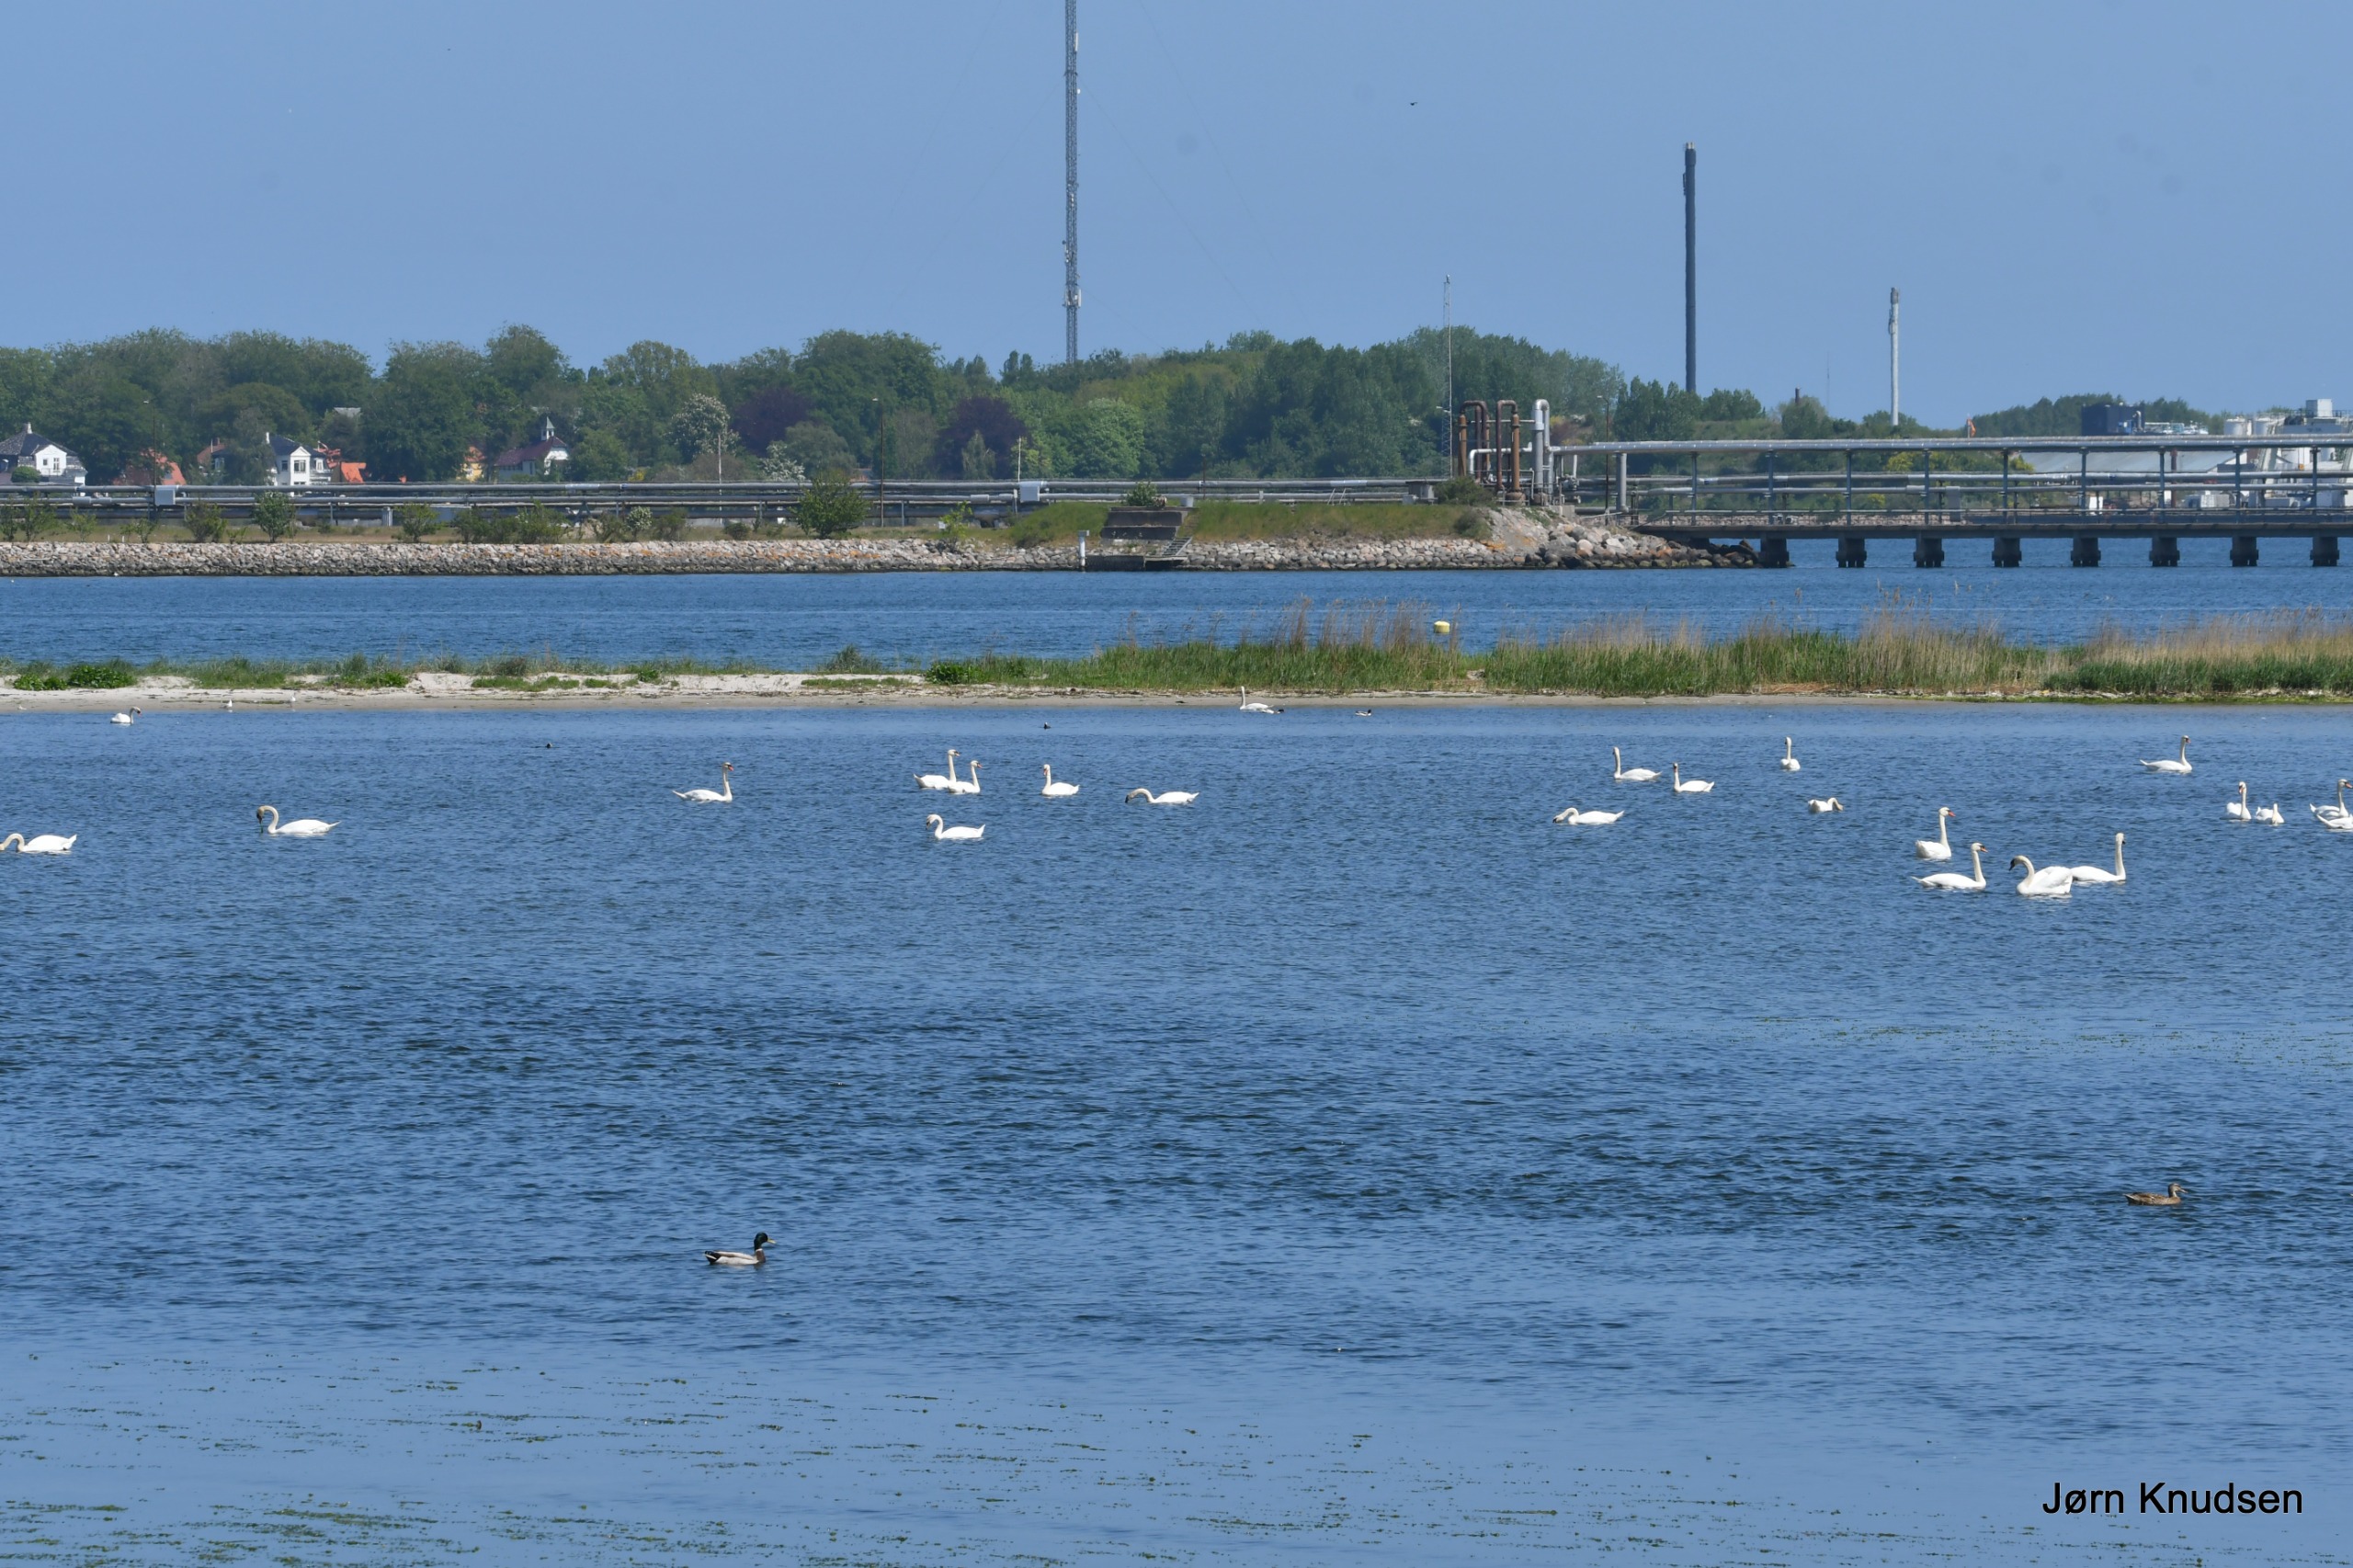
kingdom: Animalia
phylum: Chordata
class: Aves
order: Anseriformes
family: Anatidae
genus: Cygnus
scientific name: Cygnus olor
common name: Knopsvane
